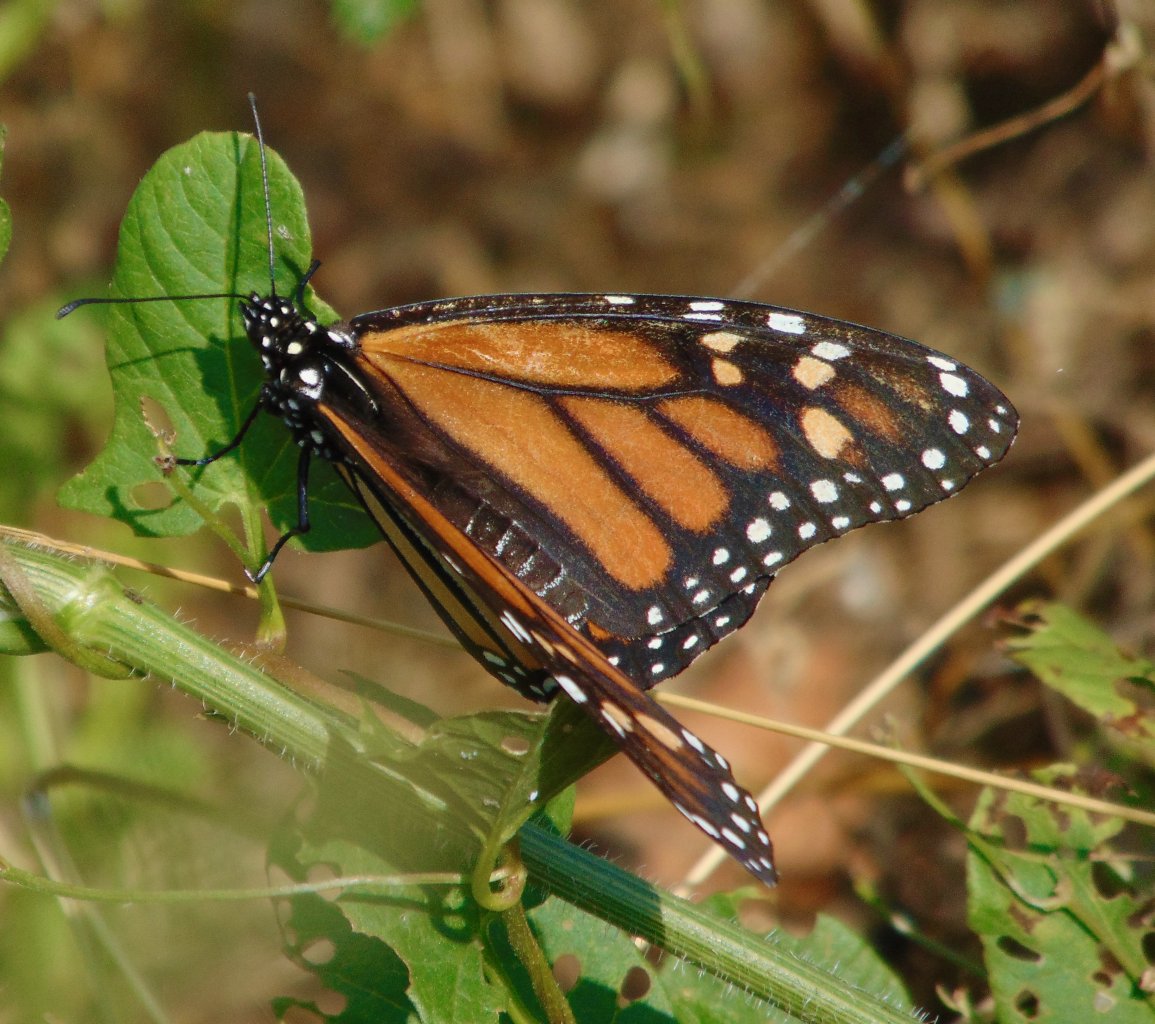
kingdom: Animalia
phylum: Arthropoda
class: Insecta
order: Lepidoptera
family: Nymphalidae
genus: Danaus
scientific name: Danaus plexippus
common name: Monarch
